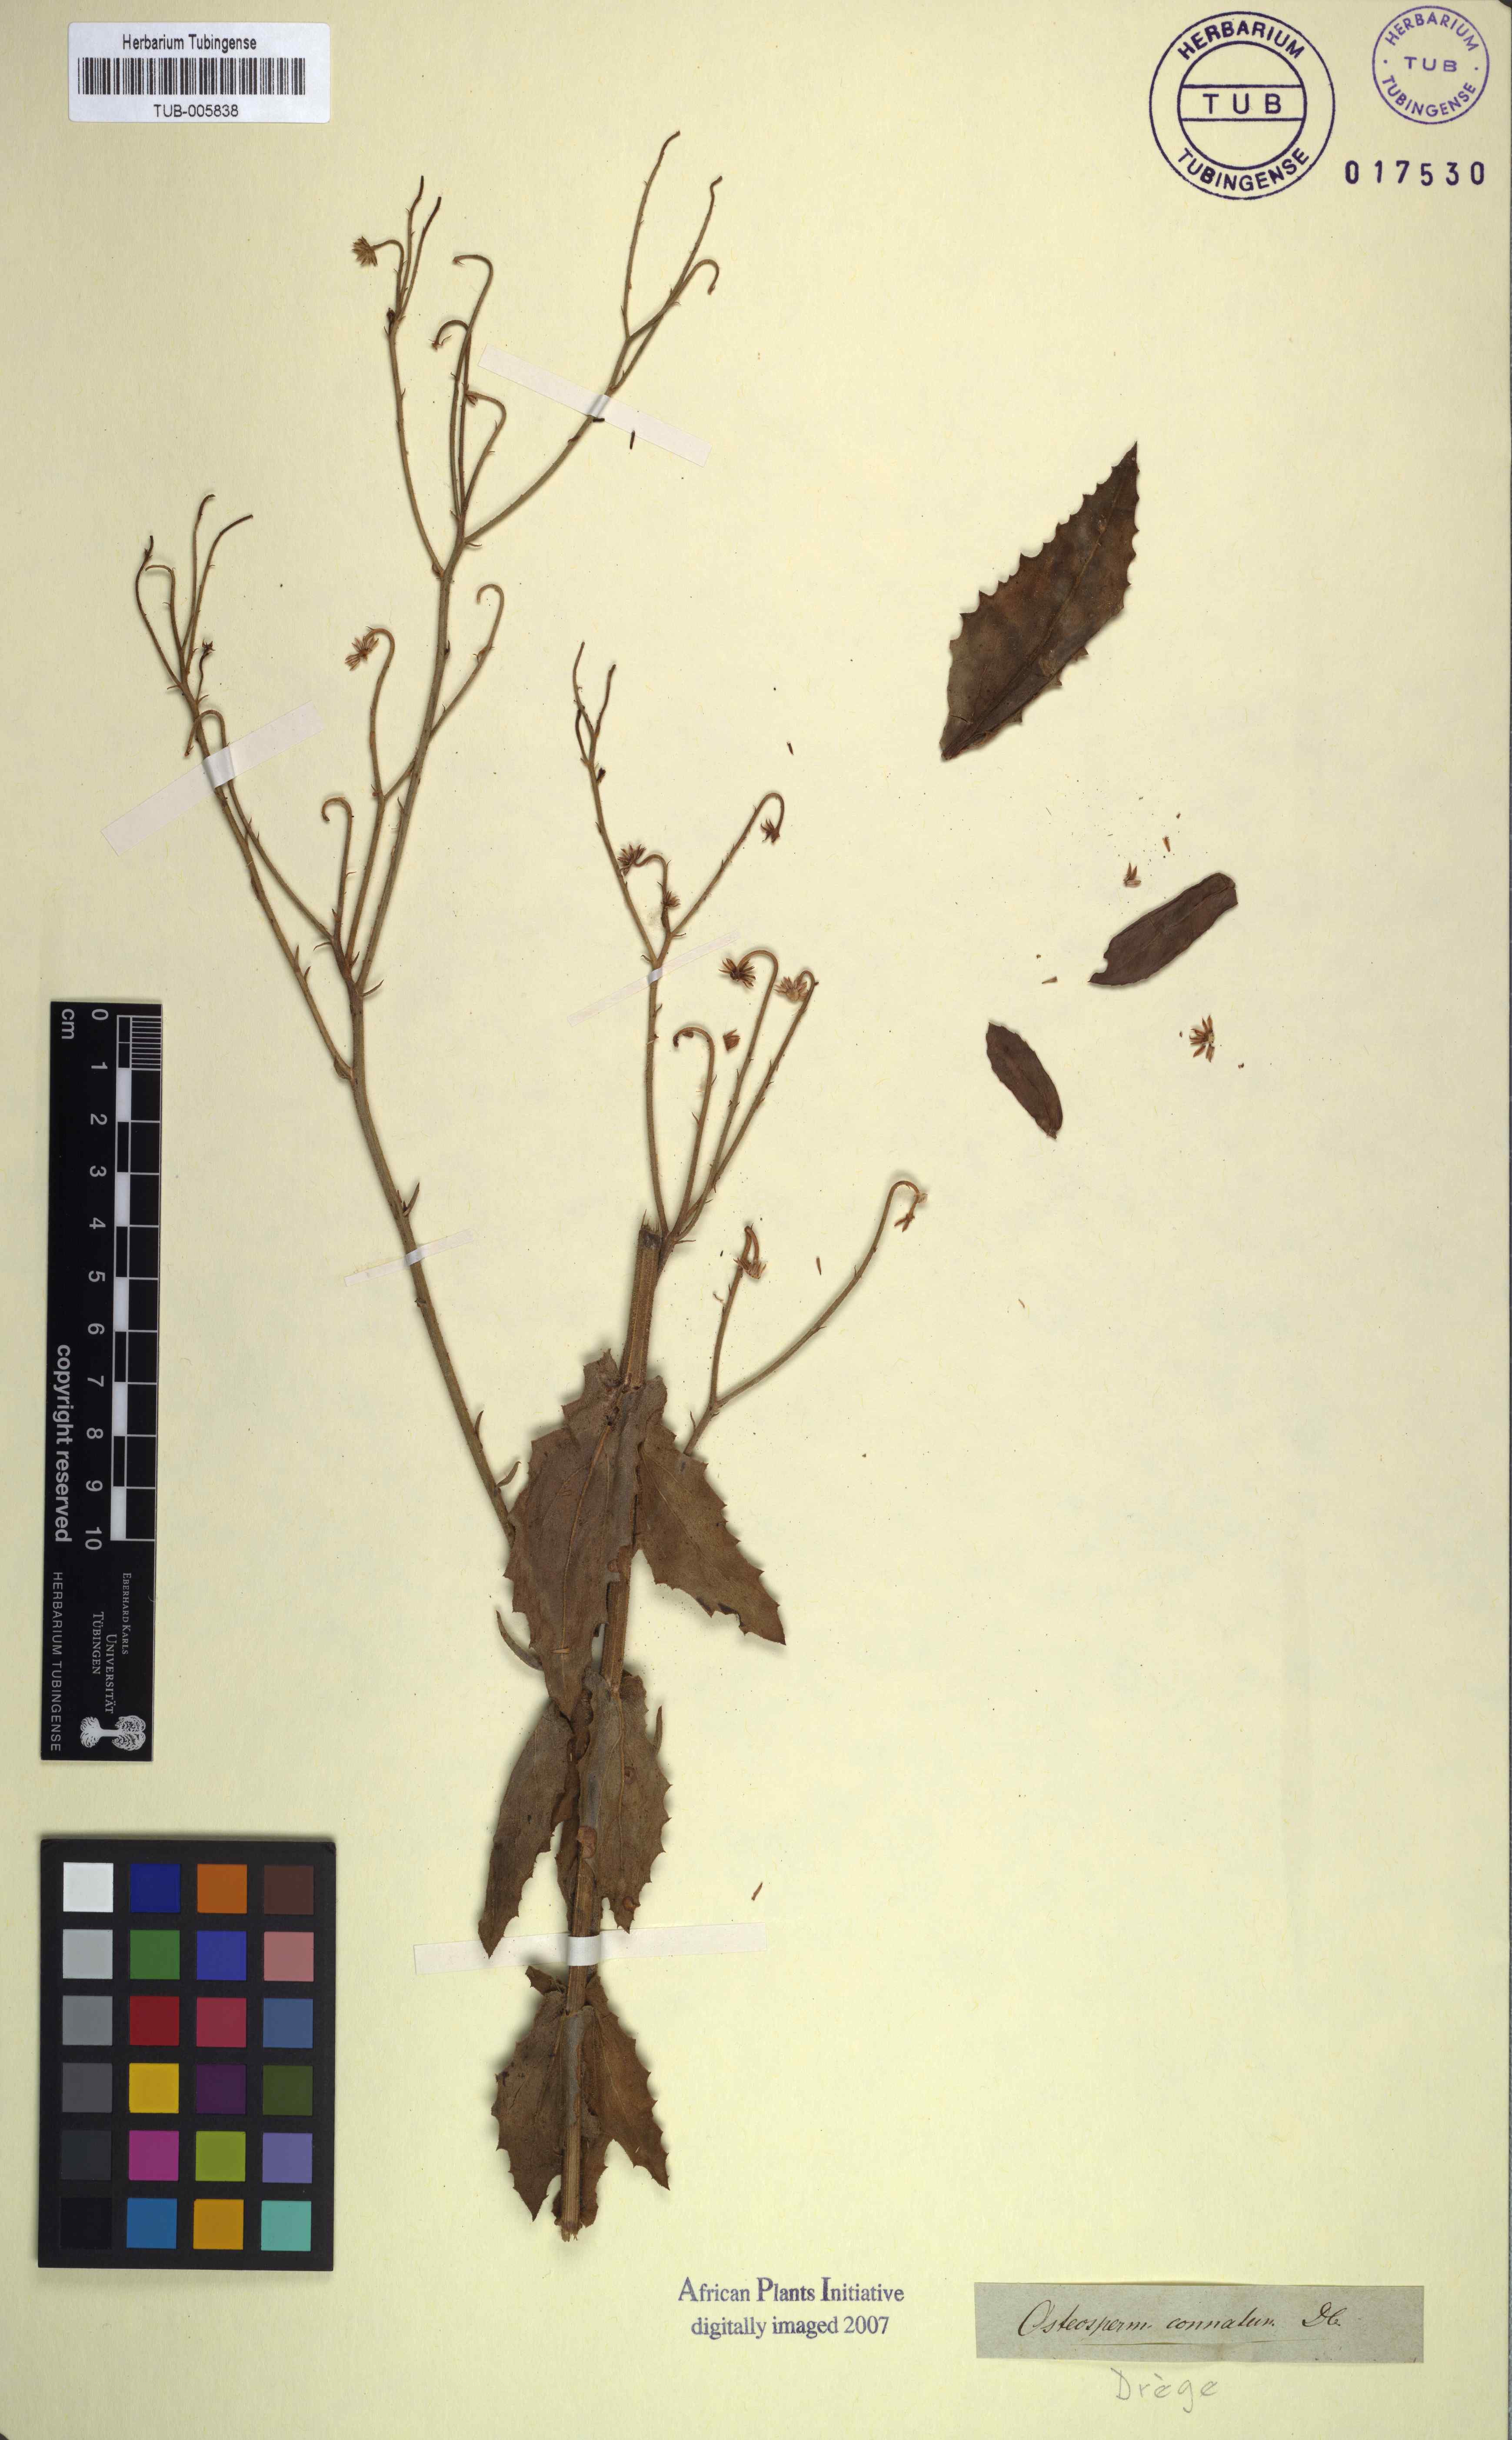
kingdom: Plantae
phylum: Tracheophyta
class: Magnoliopsida
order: Asterales
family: Asteraceae
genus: Osteospermum
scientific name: Osteospermum connatum
